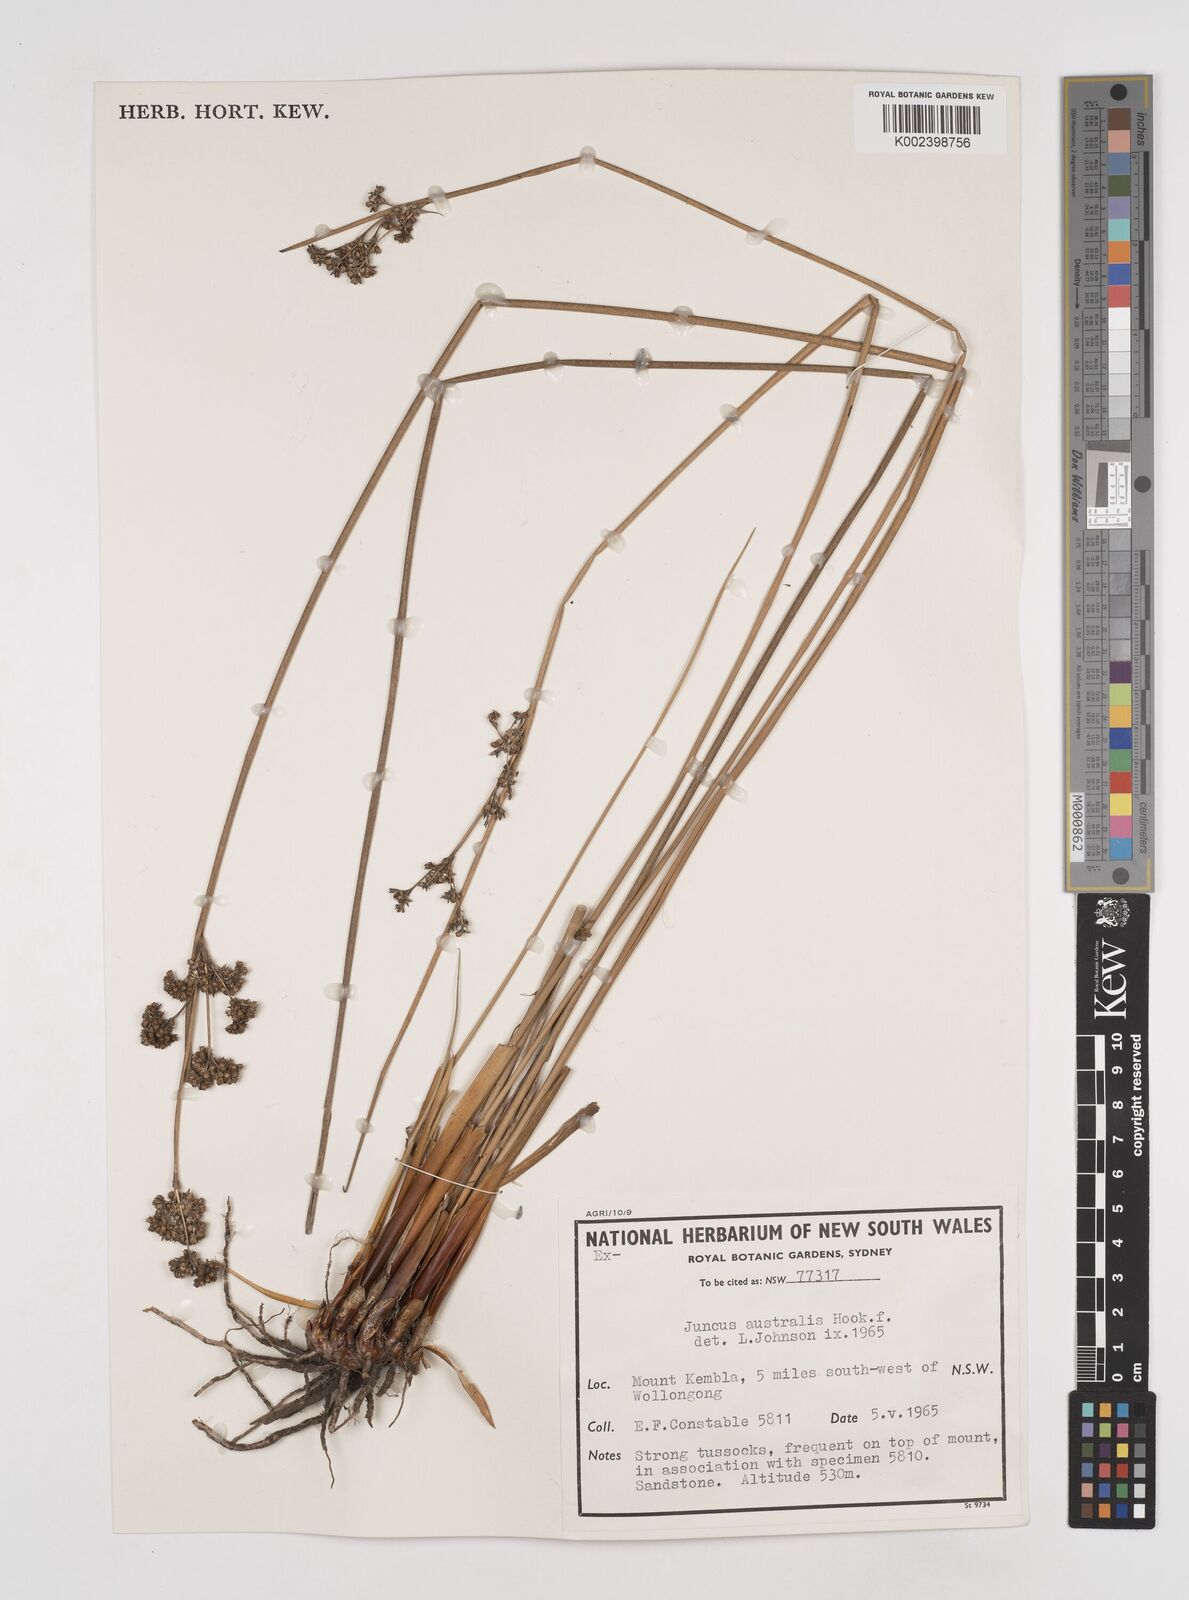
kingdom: Plantae
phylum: Tracheophyta
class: Liliopsida
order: Poales
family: Juncaceae
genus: Juncus
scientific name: Juncus australis
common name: Austral rush
